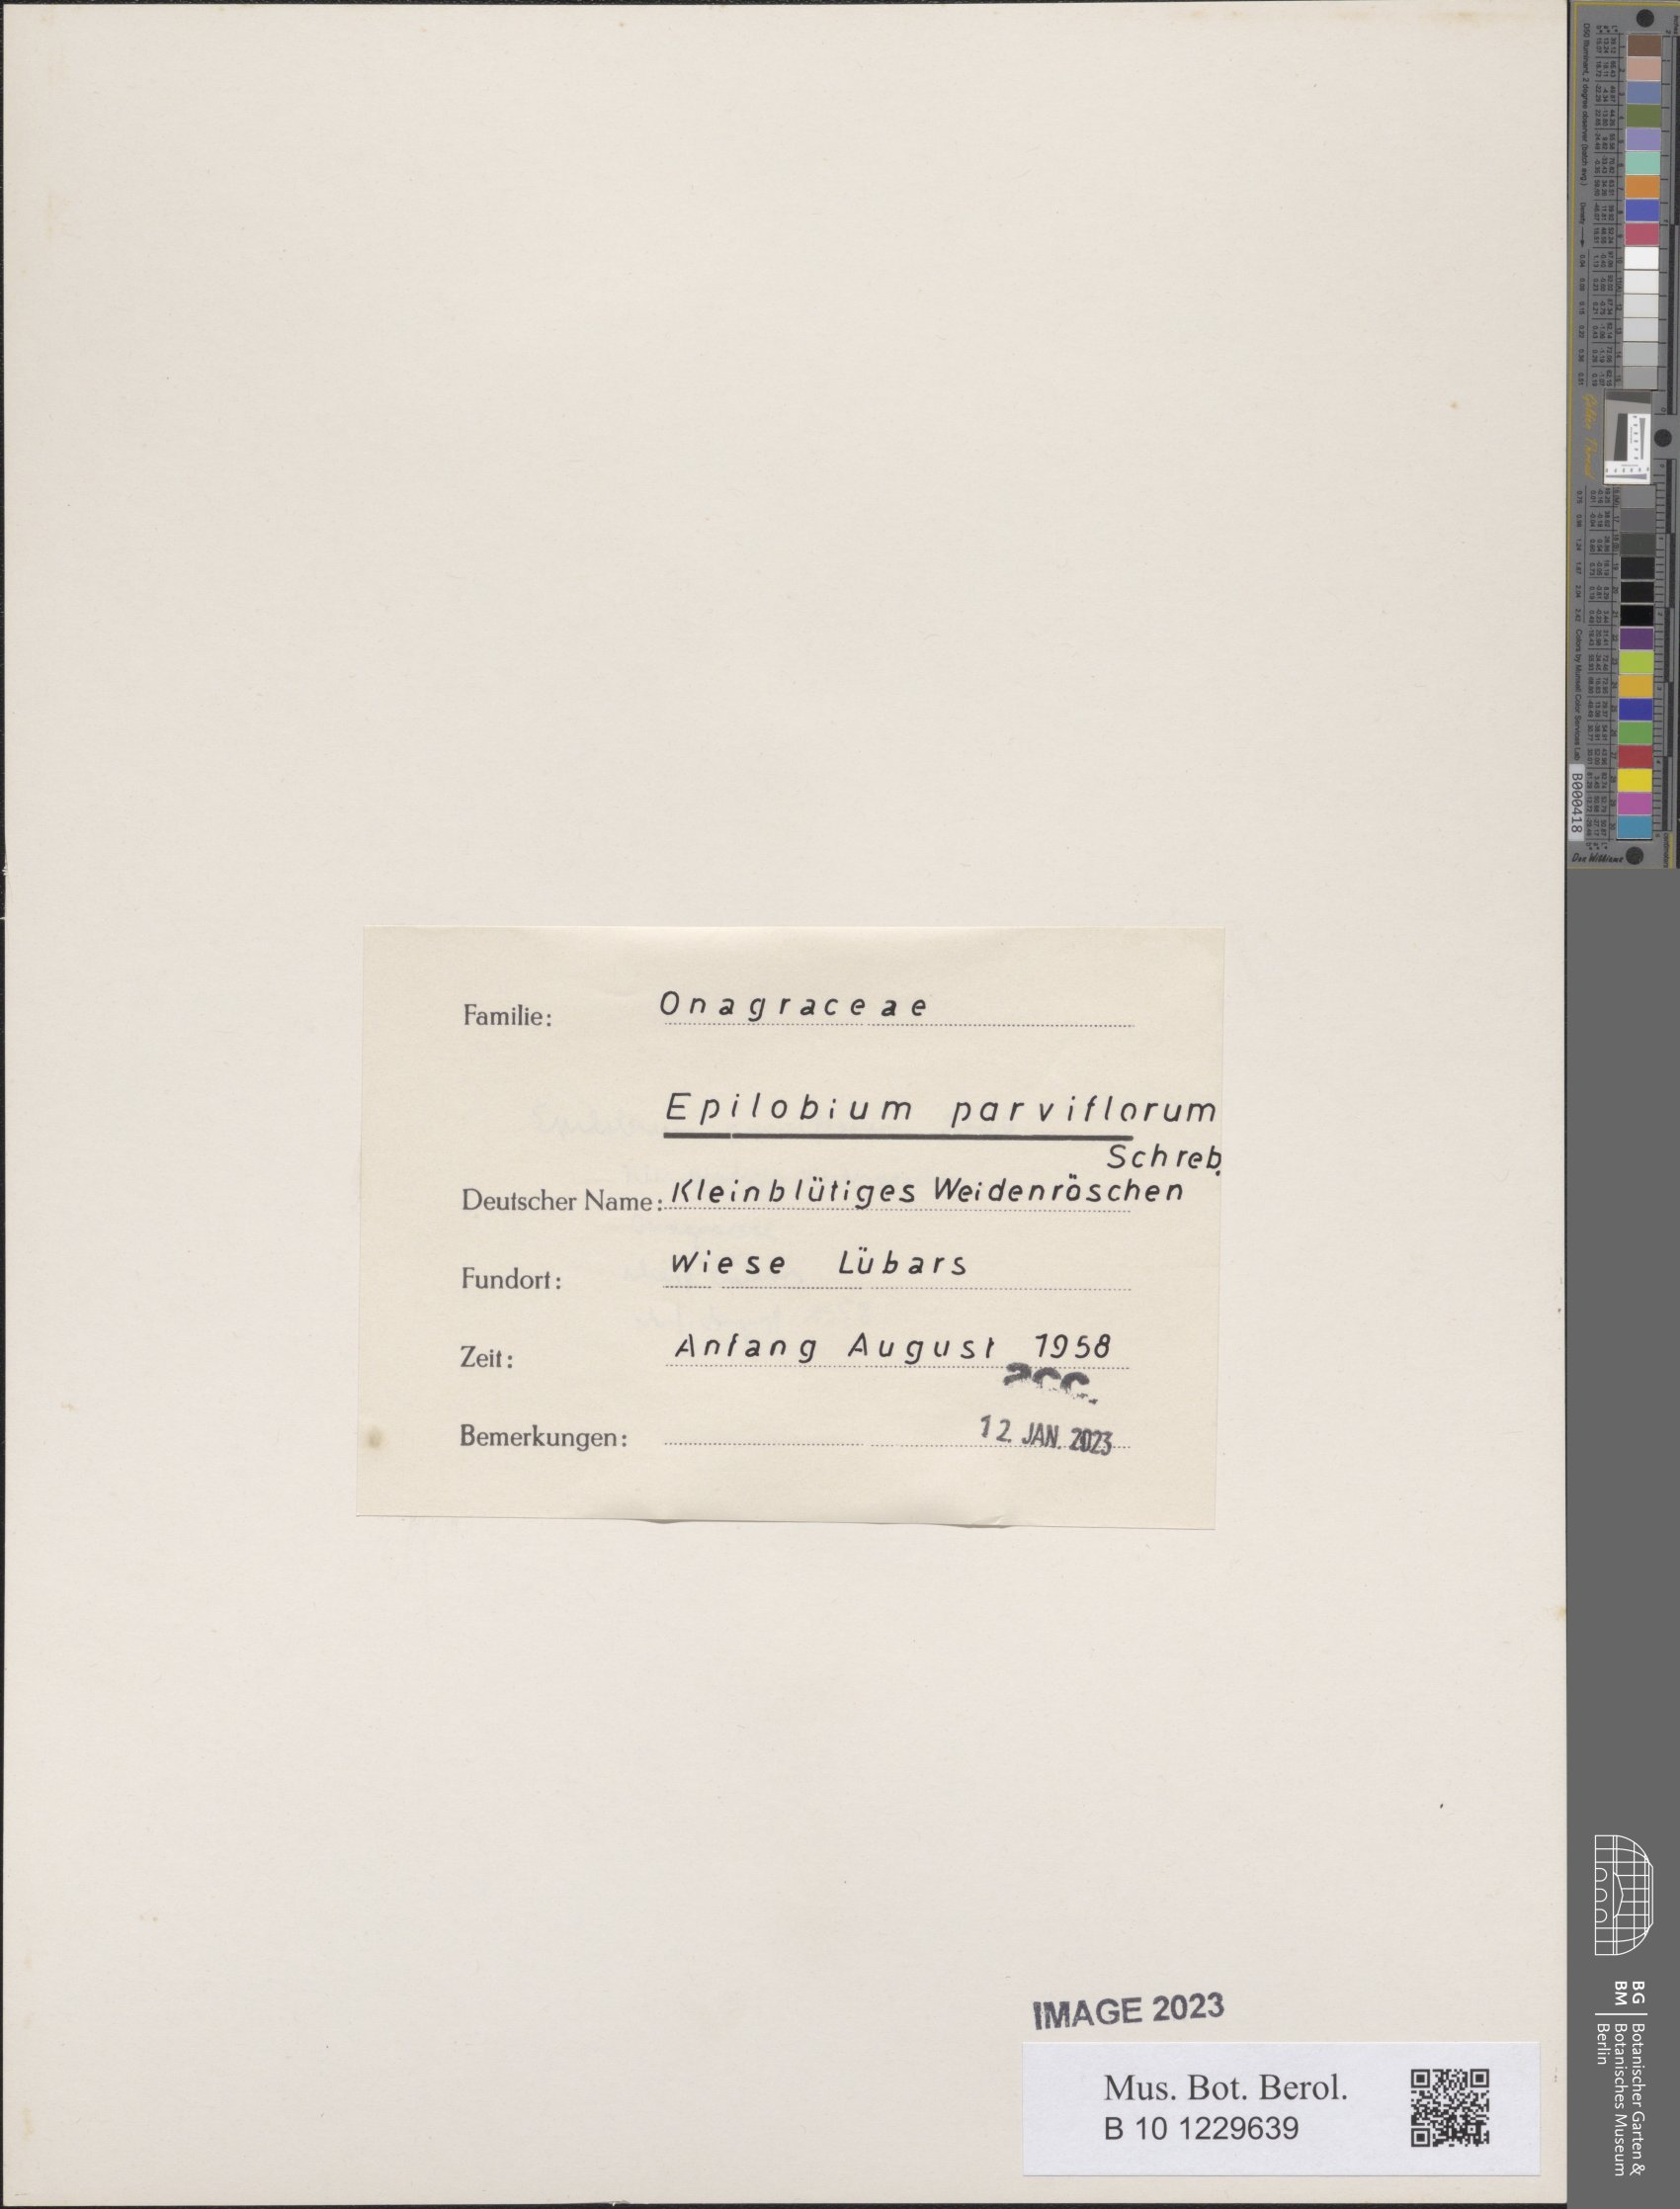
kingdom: Plantae
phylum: Tracheophyta
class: Magnoliopsida
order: Myrtales
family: Onagraceae
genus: Epilobium
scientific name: Epilobium parviflorum
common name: Hoary willowherb
